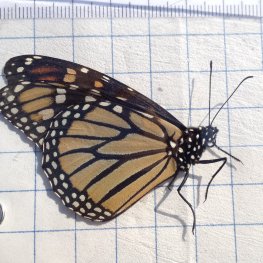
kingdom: Animalia
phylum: Arthropoda
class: Insecta
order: Lepidoptera
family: Nymphalidae
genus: Danaus
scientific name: Danaus plexippus
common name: Monarch
